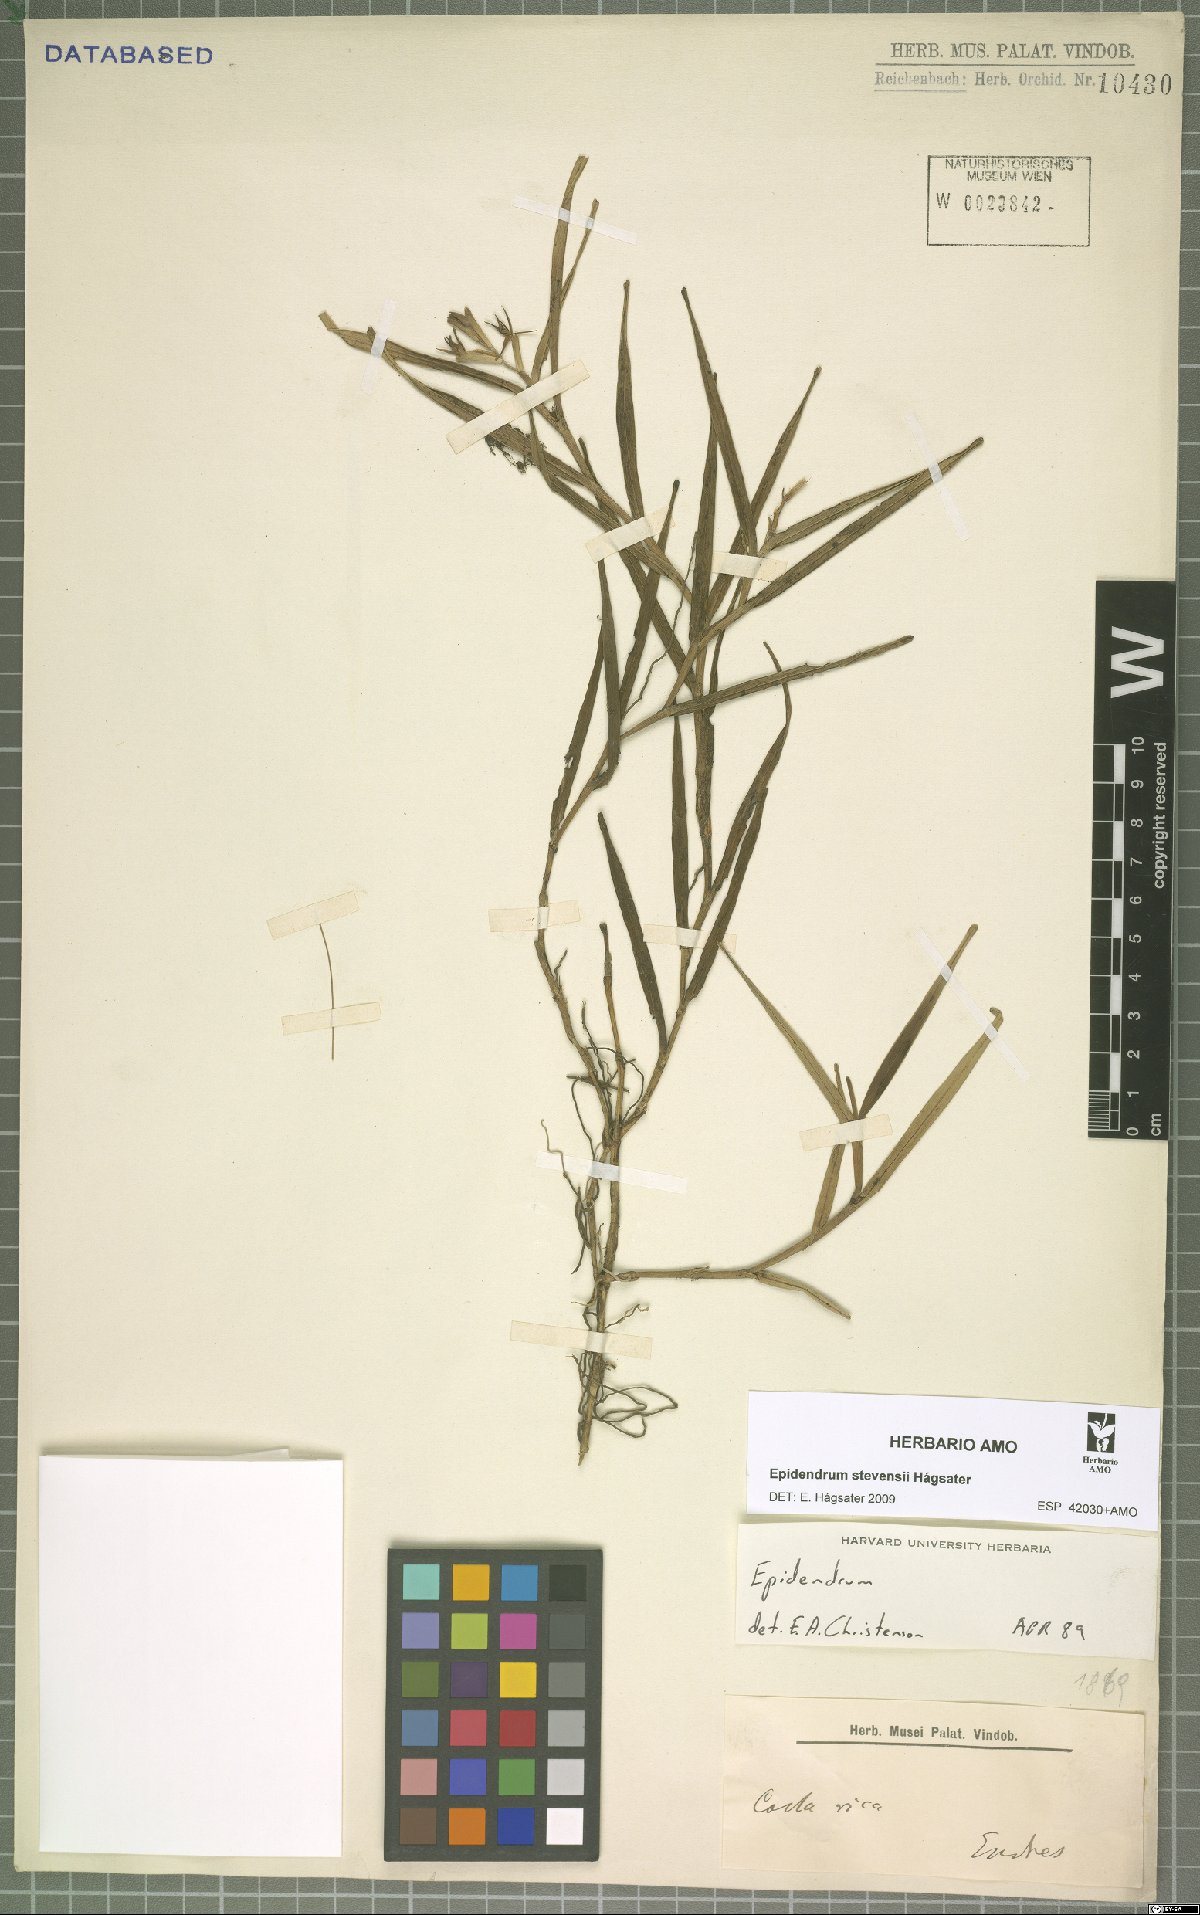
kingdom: Plantae
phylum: Tracheophyta
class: Liliopsida
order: Asparagales
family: Orchidaceae
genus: Epidendrum
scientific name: Epidendrum stevensii
